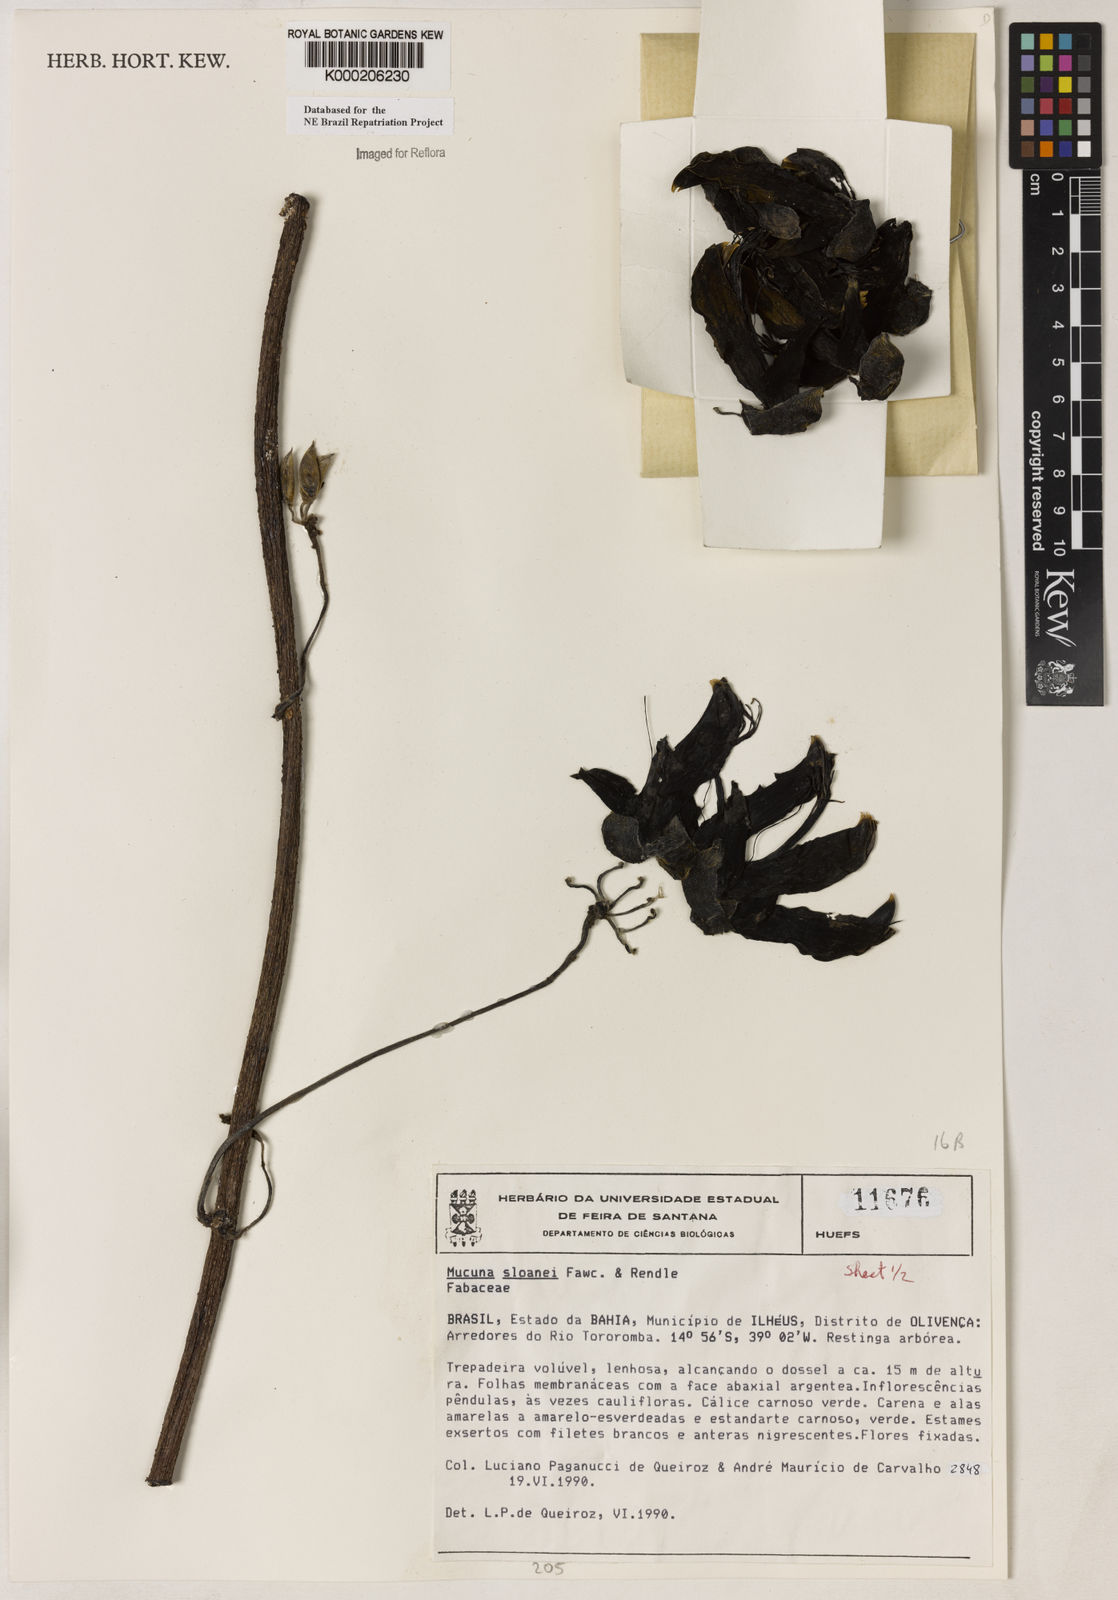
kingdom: Plantae
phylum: Tracheophyta
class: Magnoliopsida
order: Fabales
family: Fabaceae
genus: Mucuna
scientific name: Mucuna sloanei
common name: Horse-eye bean
